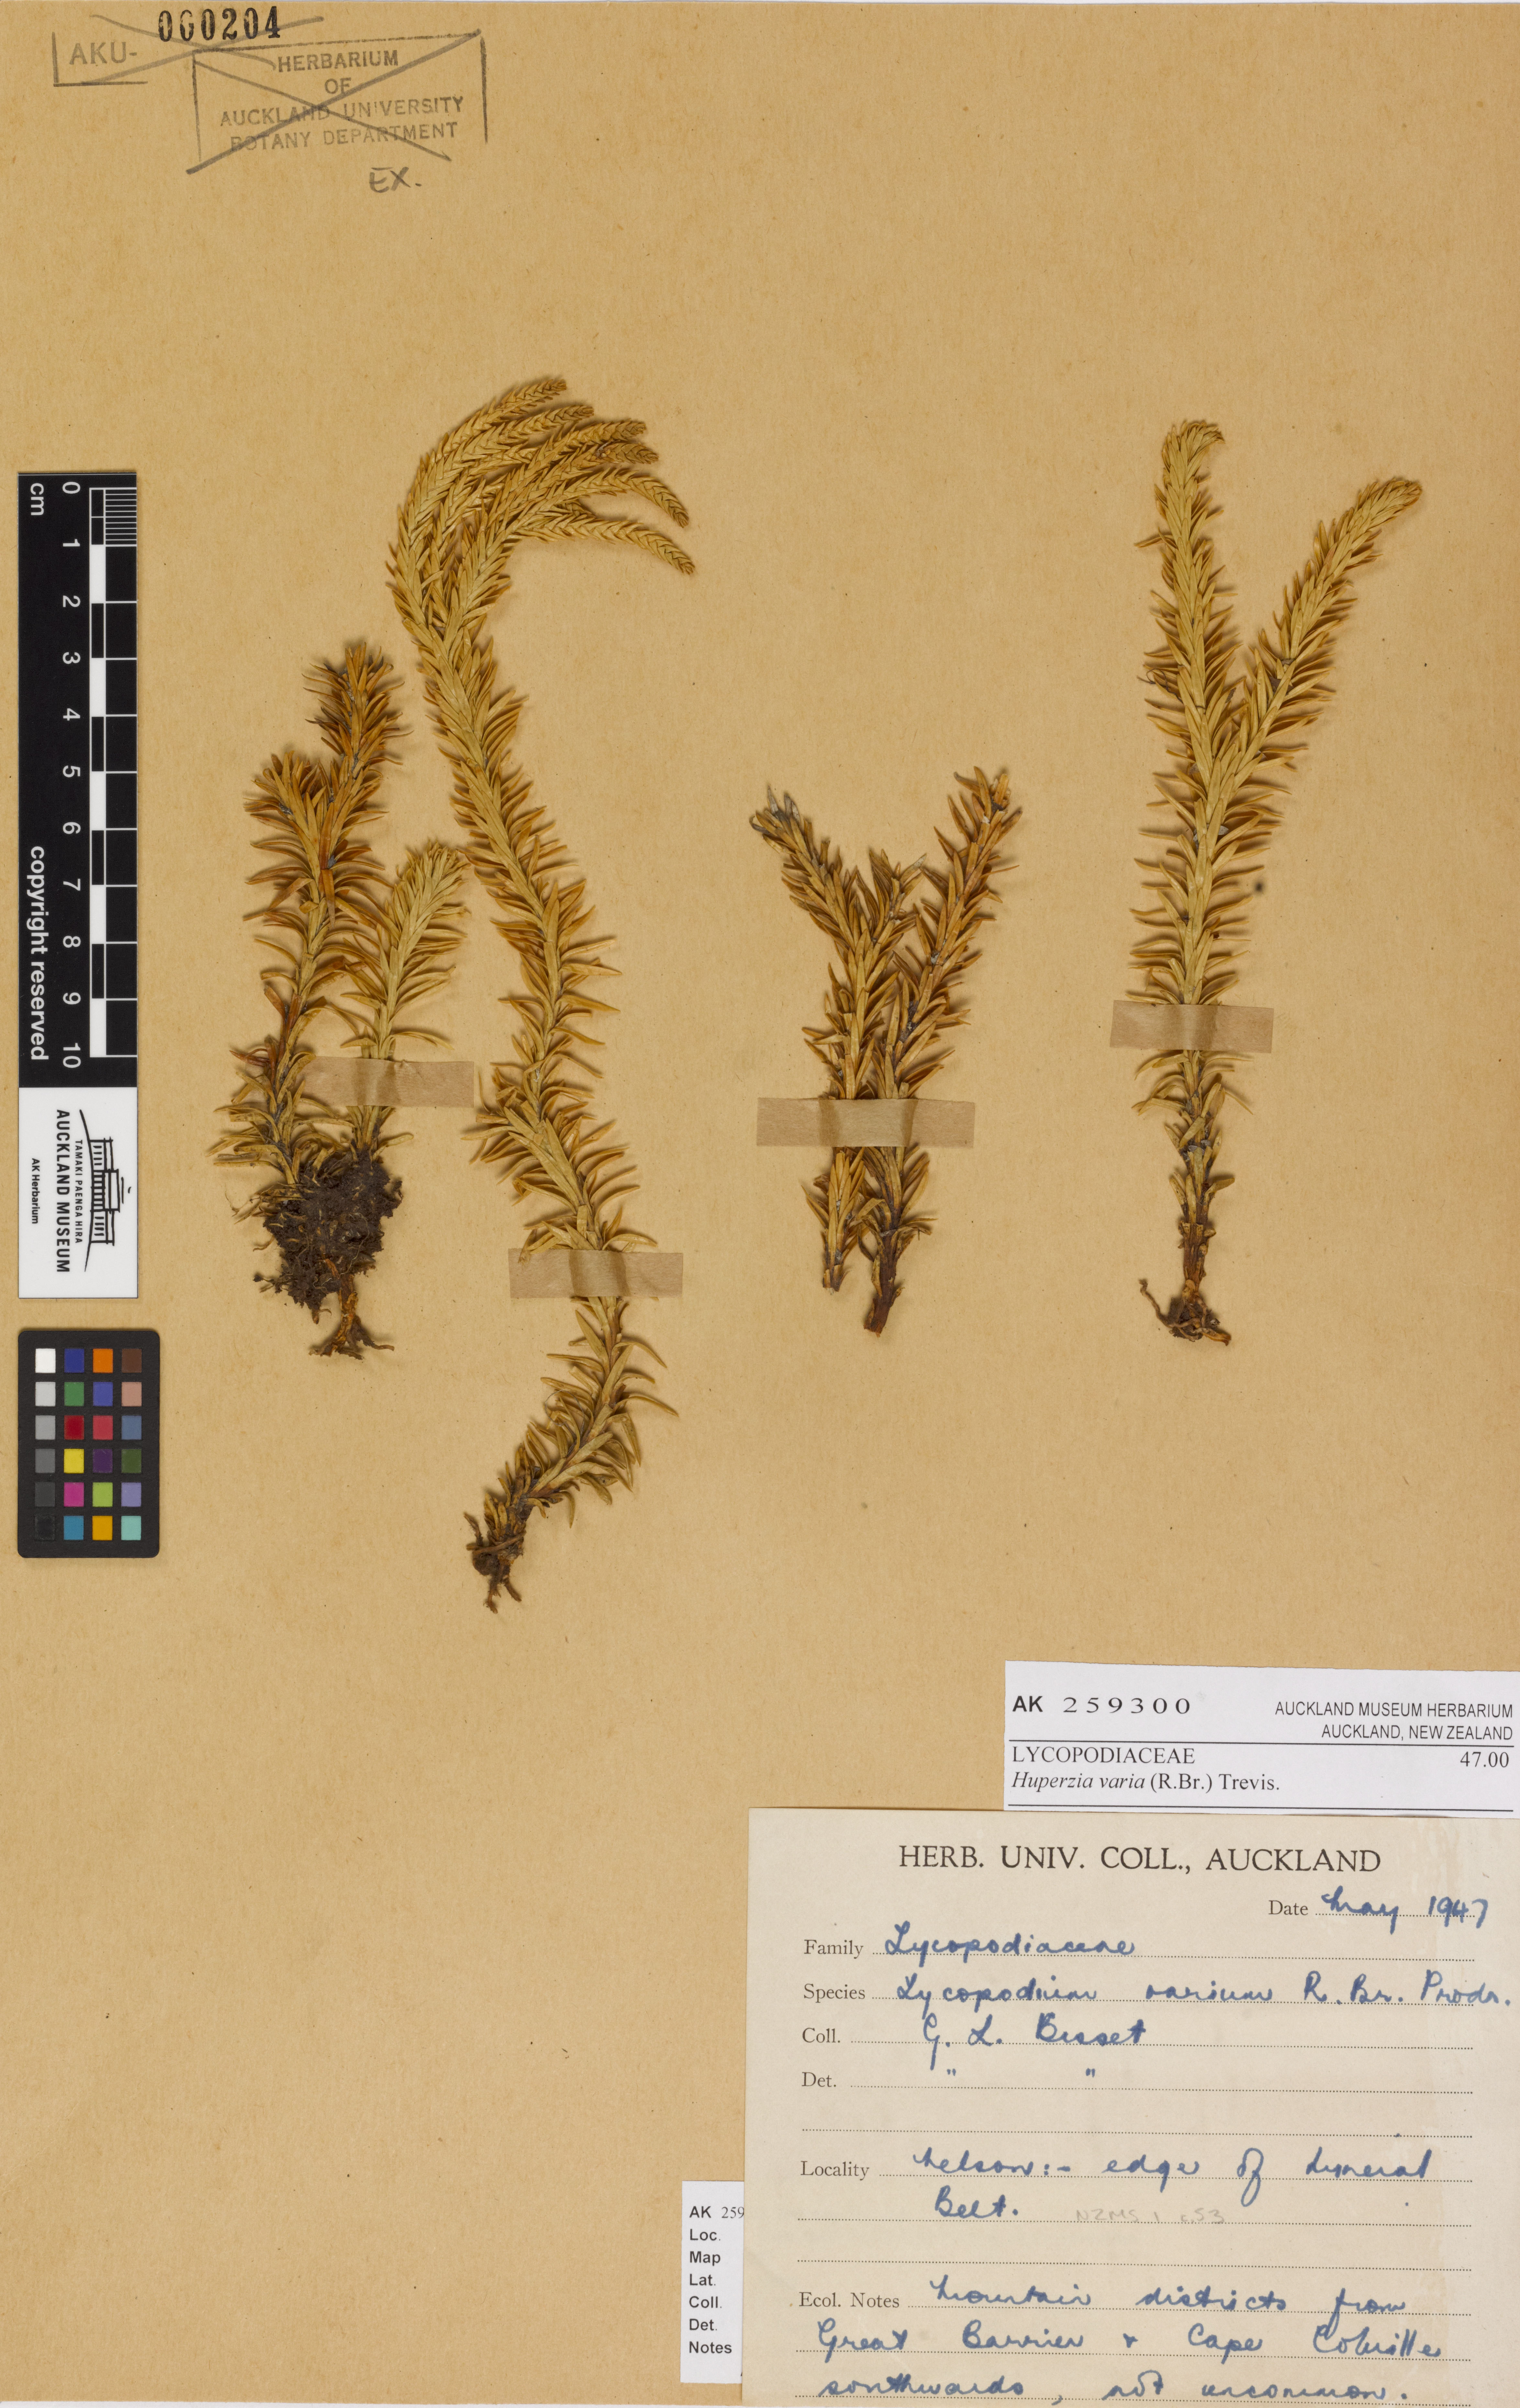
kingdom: Plantae
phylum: Tracheophyta
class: Lycopodiopsida
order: Lycopodiales
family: Lycopodiaceae
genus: Phlegmariurus
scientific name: Phlegmariurus varius
